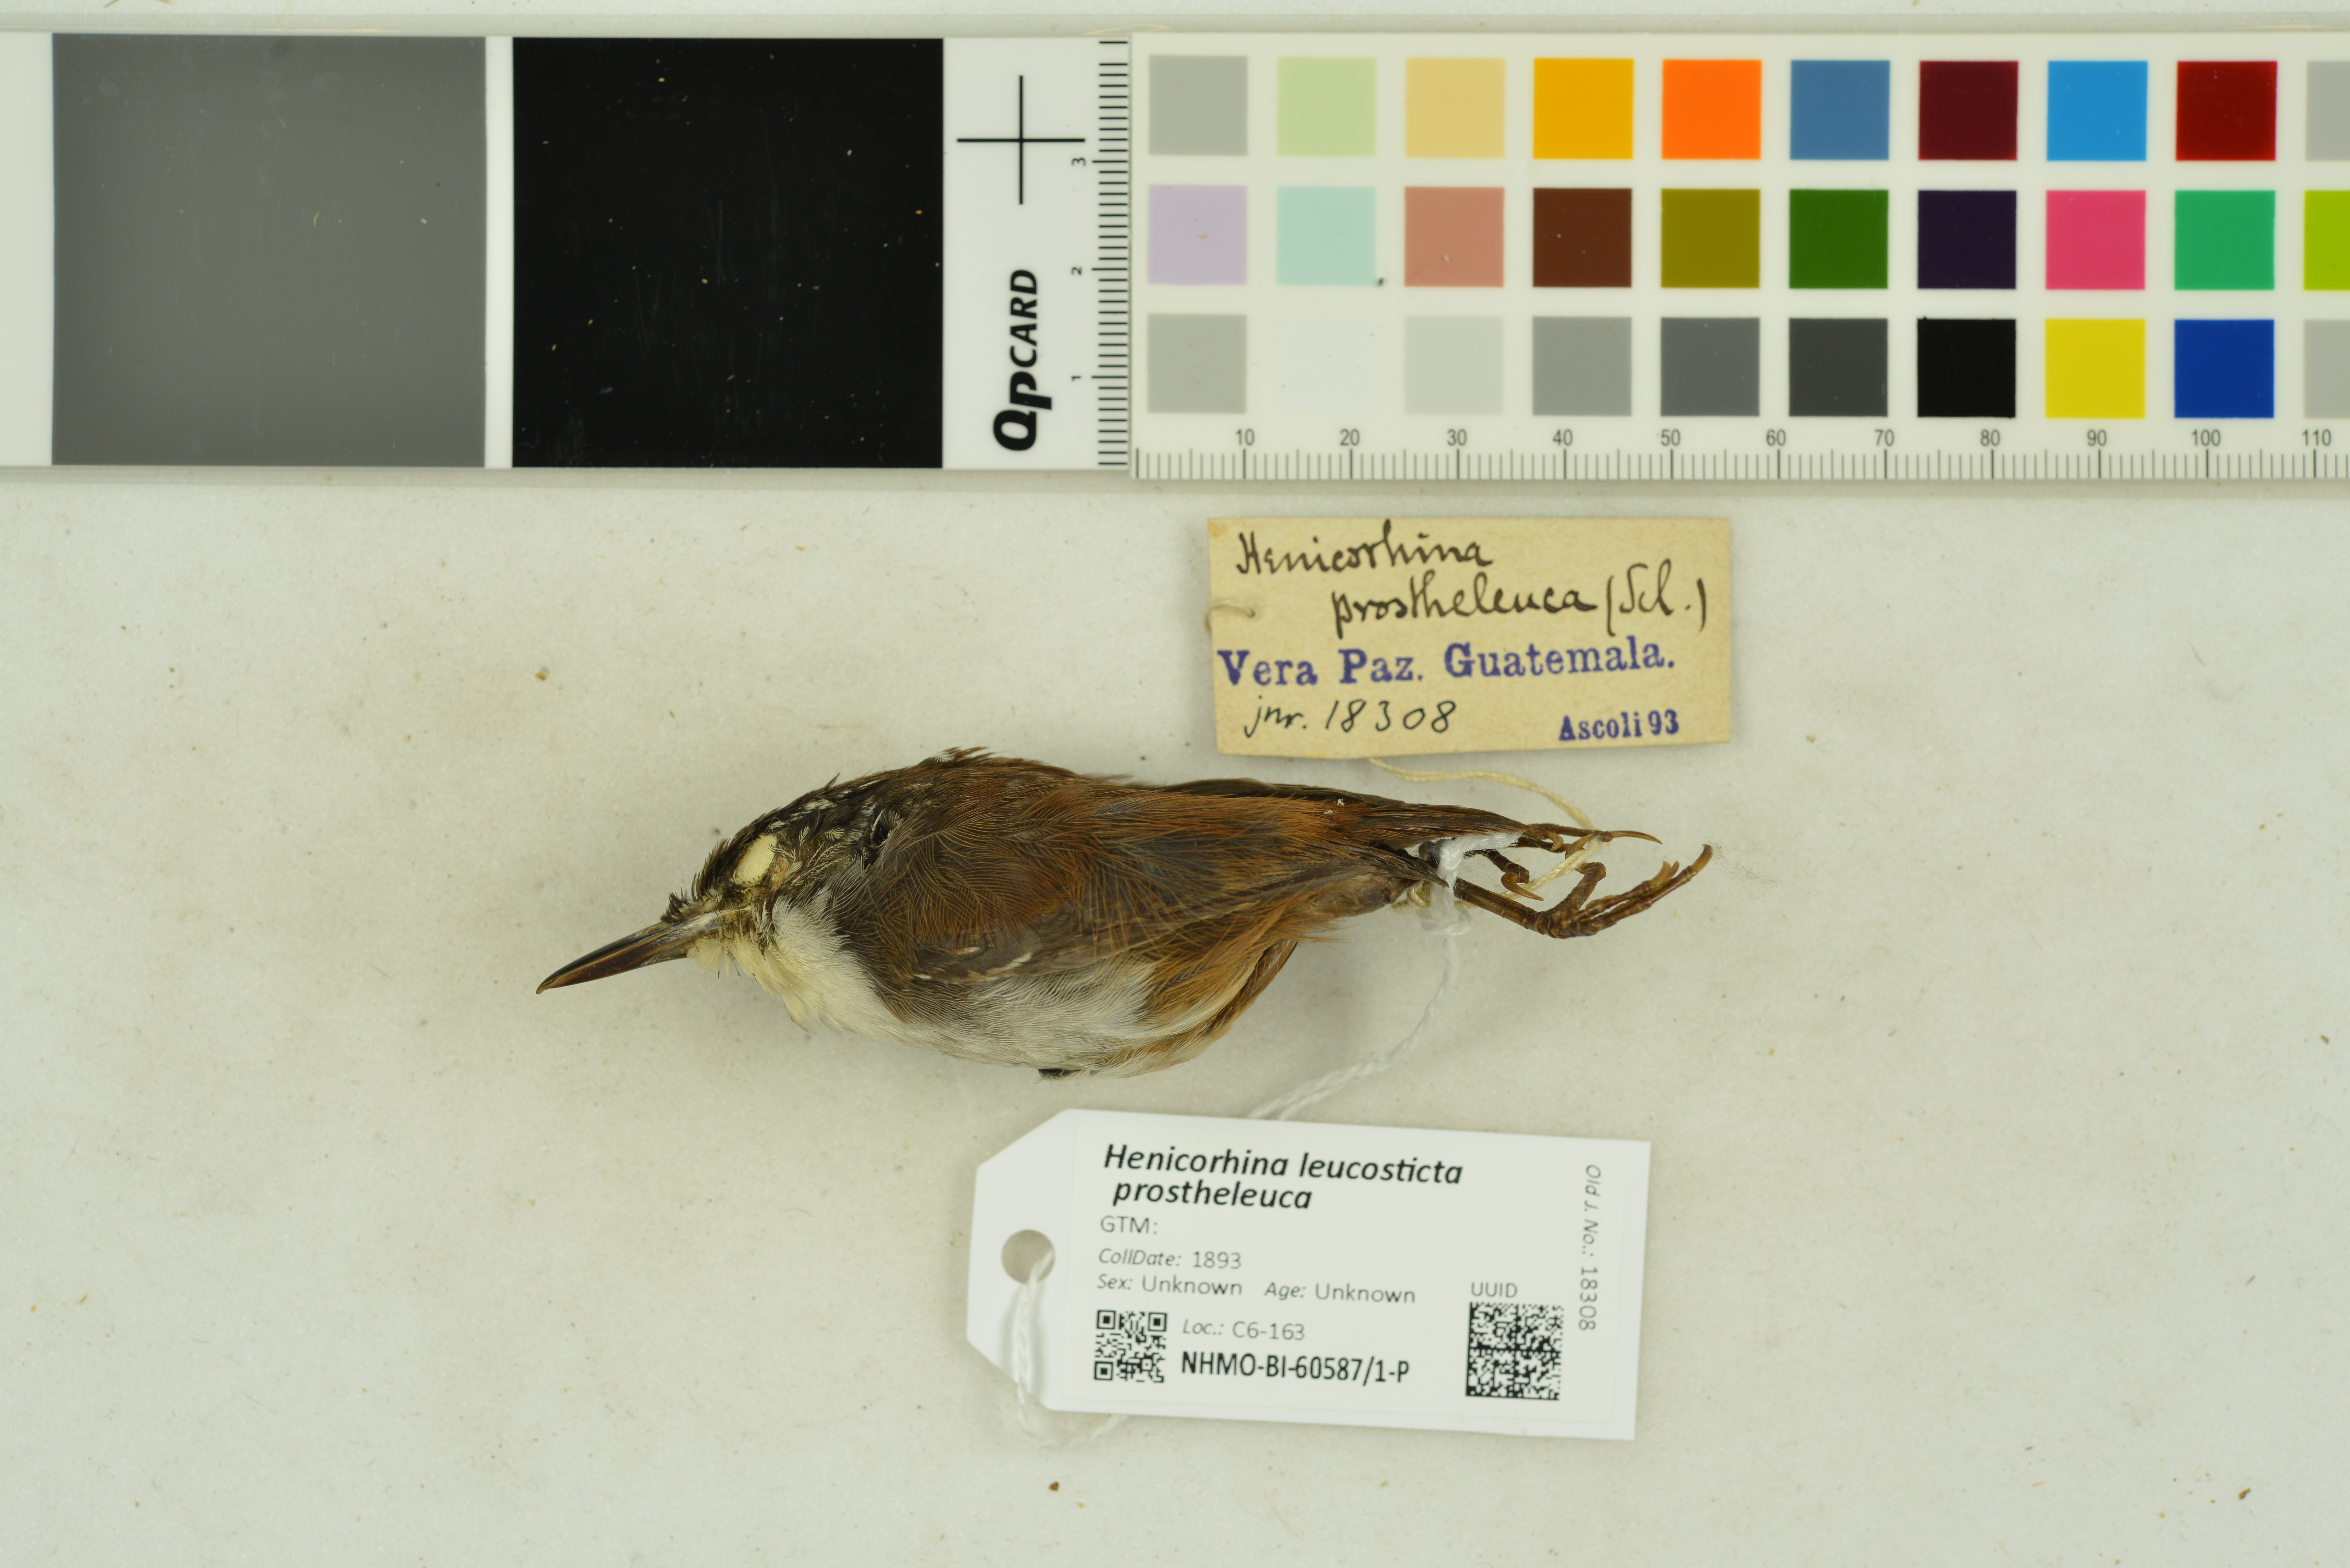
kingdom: Animalia
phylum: Chordata
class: Aves
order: Passeriformes
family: Troglodytidae
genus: Henicorhina
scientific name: Henicorhina leucosticta
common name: White-breasted wood-wren
